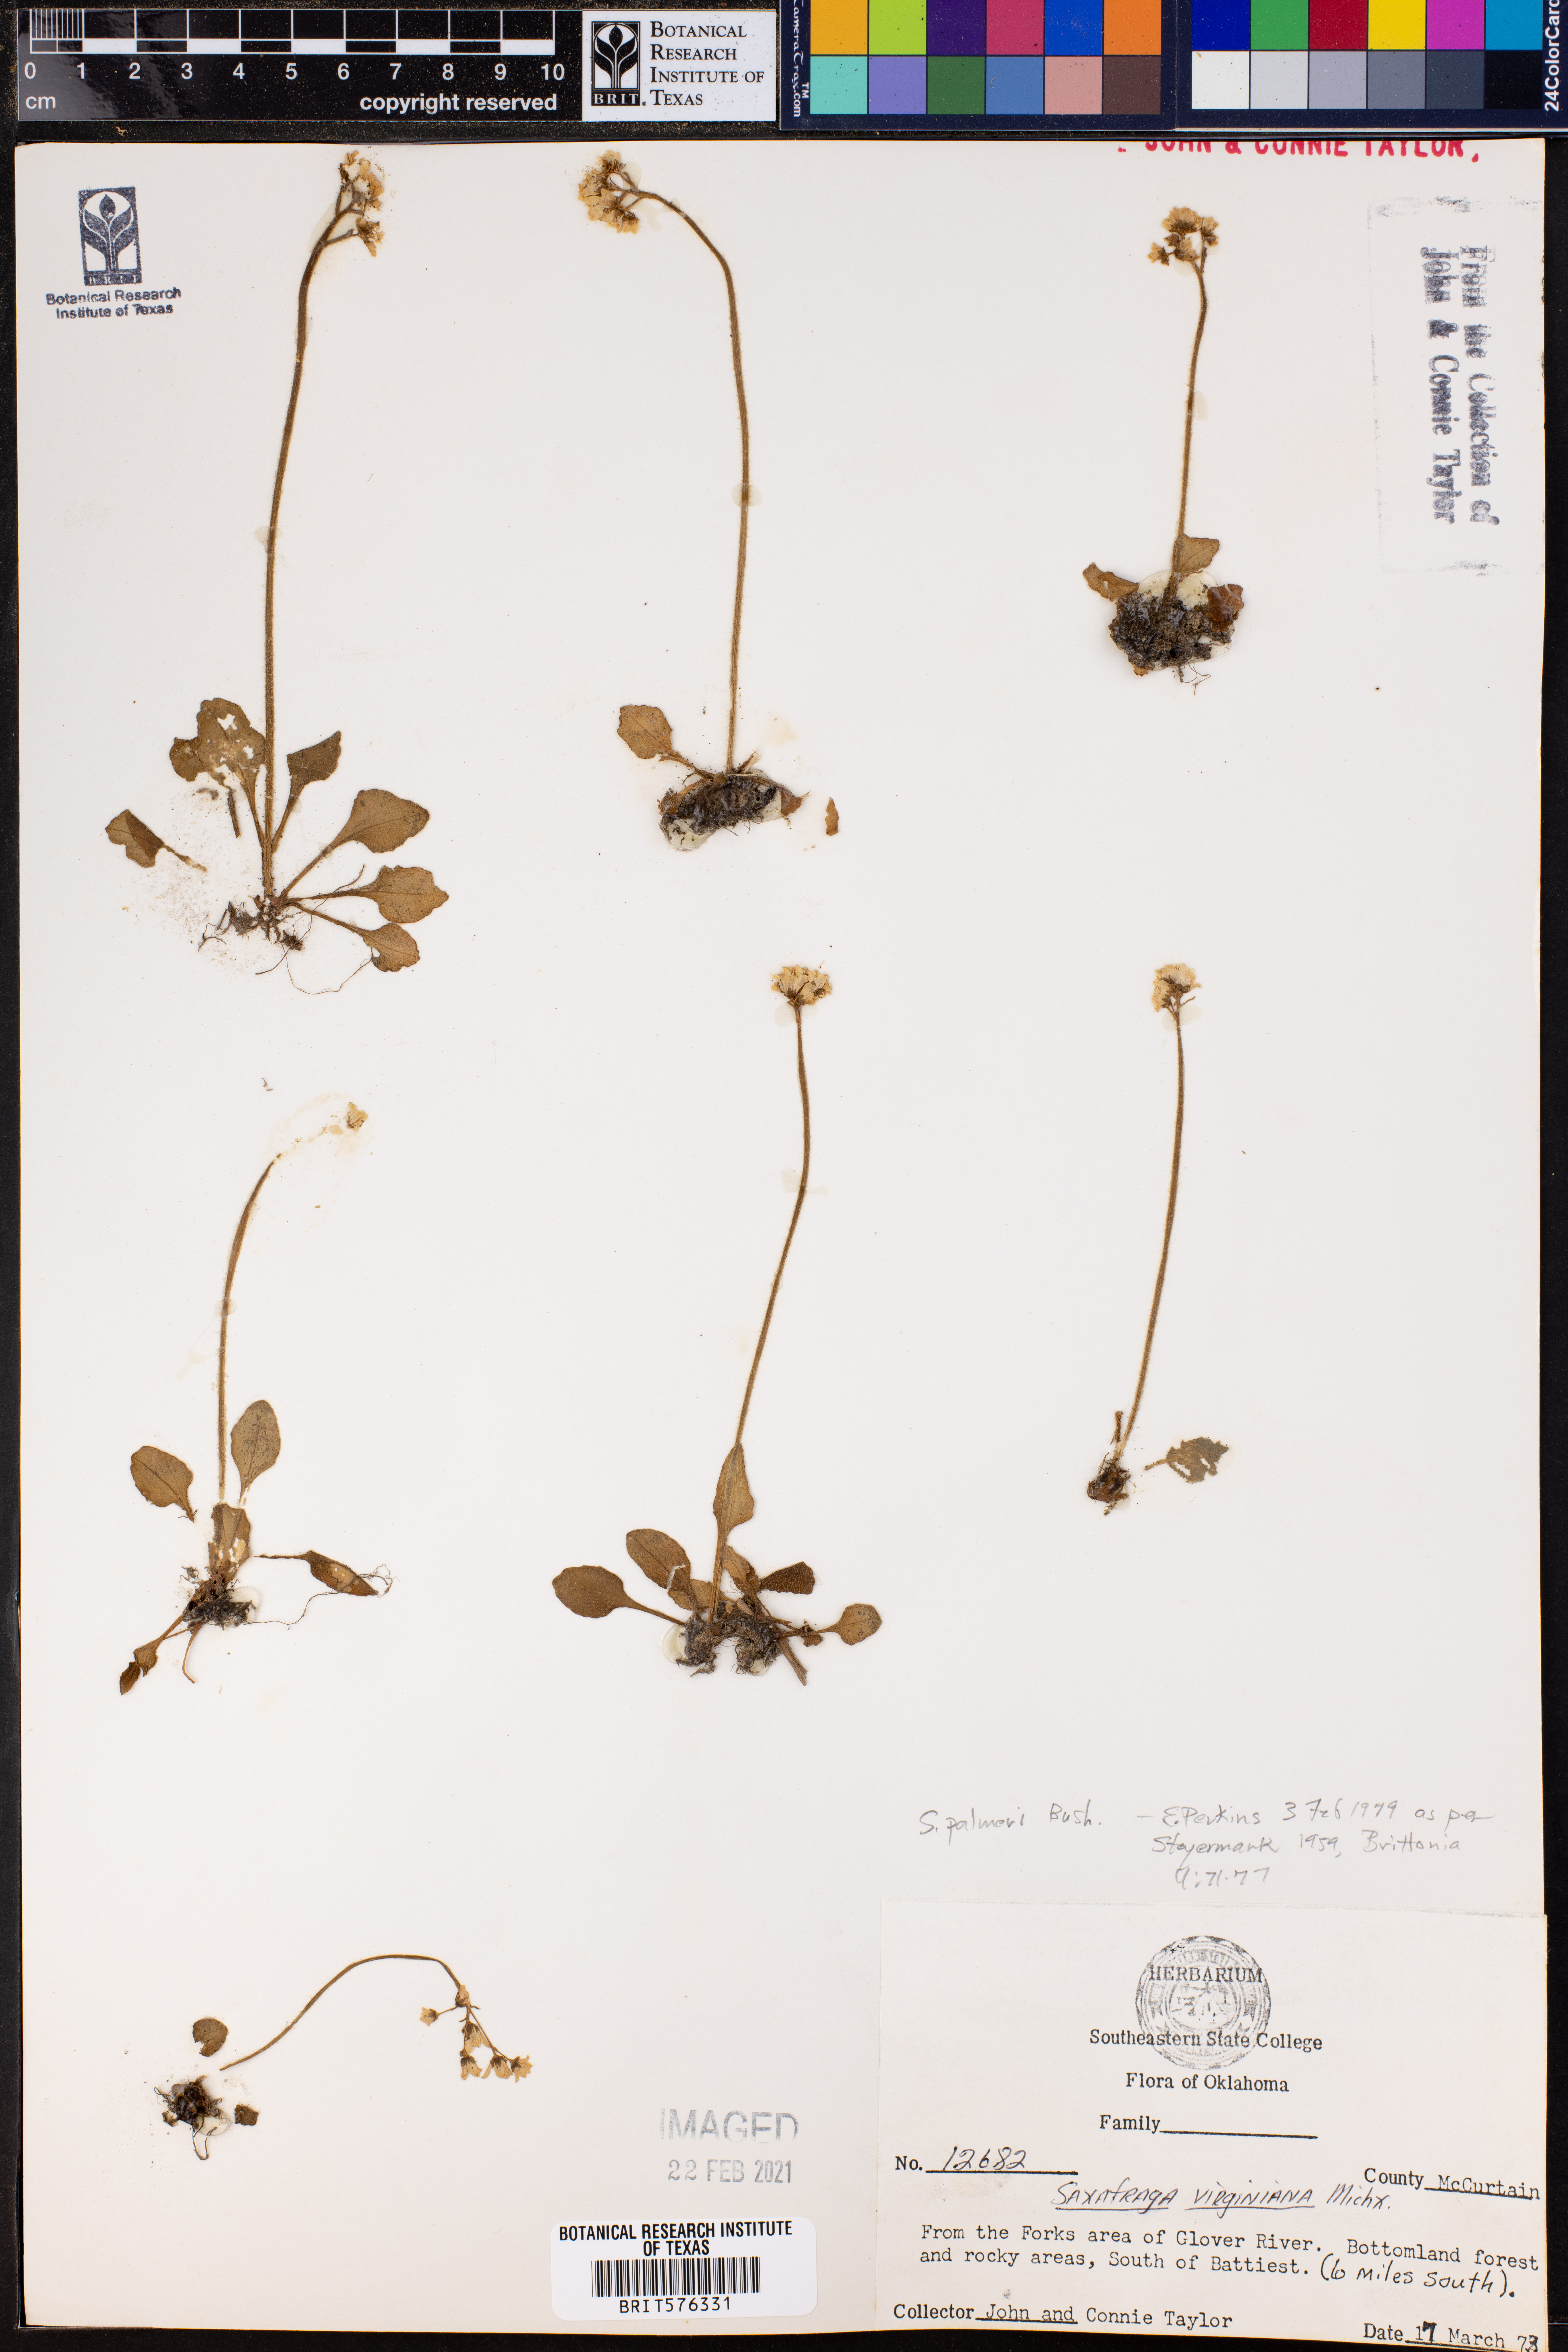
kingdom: Plantae
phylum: Tracheophyta
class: Magnoliopsida
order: Saxifragales
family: Saxifragaceae
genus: Micranthes
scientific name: Micranthes palmeri
